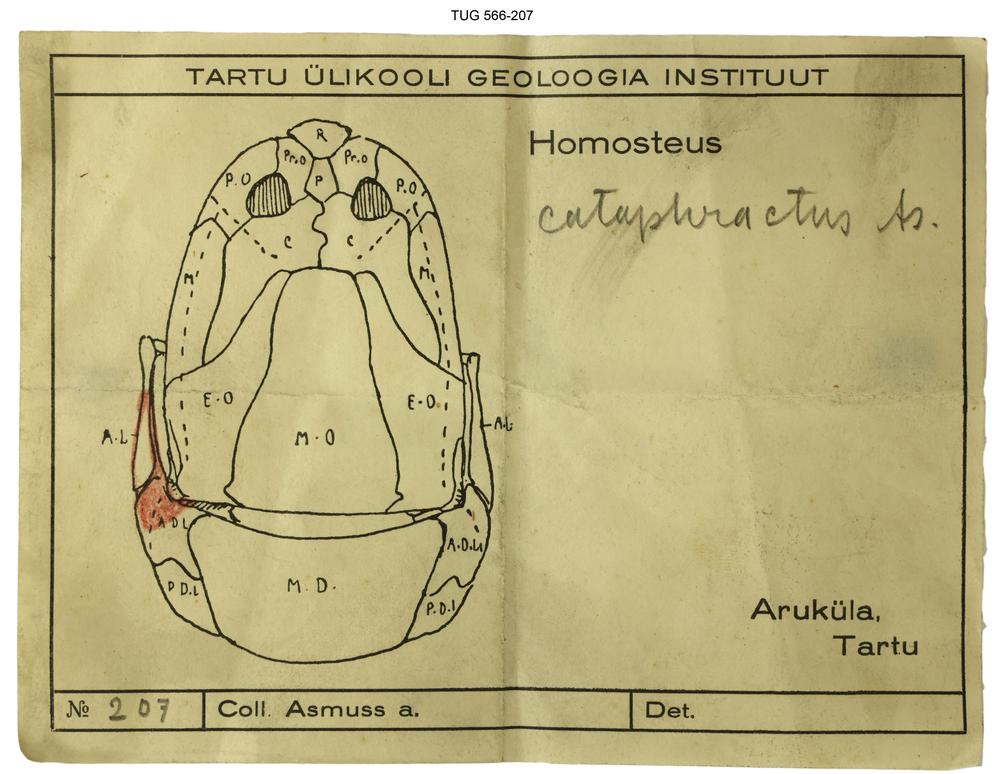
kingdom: Animalia
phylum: Chordata
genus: Homosteus
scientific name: Homosteus sulcatus
